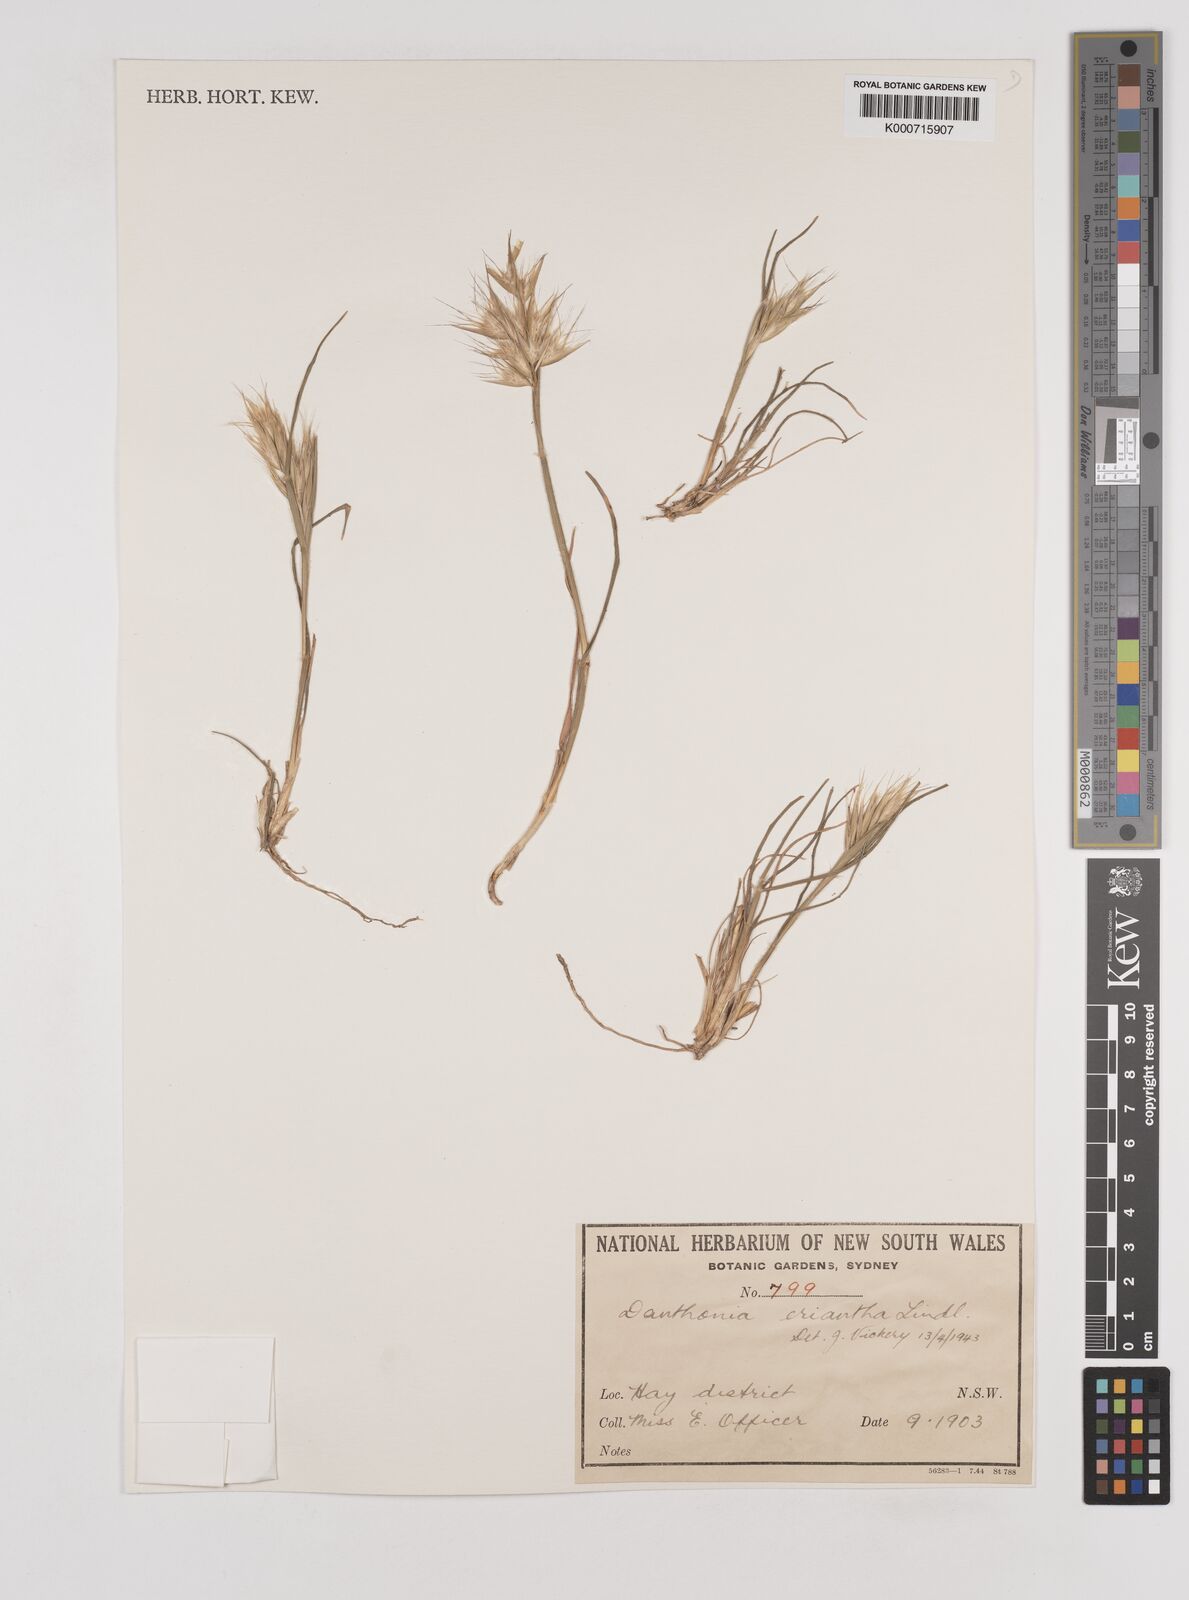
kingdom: Plantae
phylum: Tracheophyta
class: Liliopsida
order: Poales
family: Poaceae
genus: Rytidosperma
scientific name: Rytidosperma erianthum
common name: Hill wallaby grass
